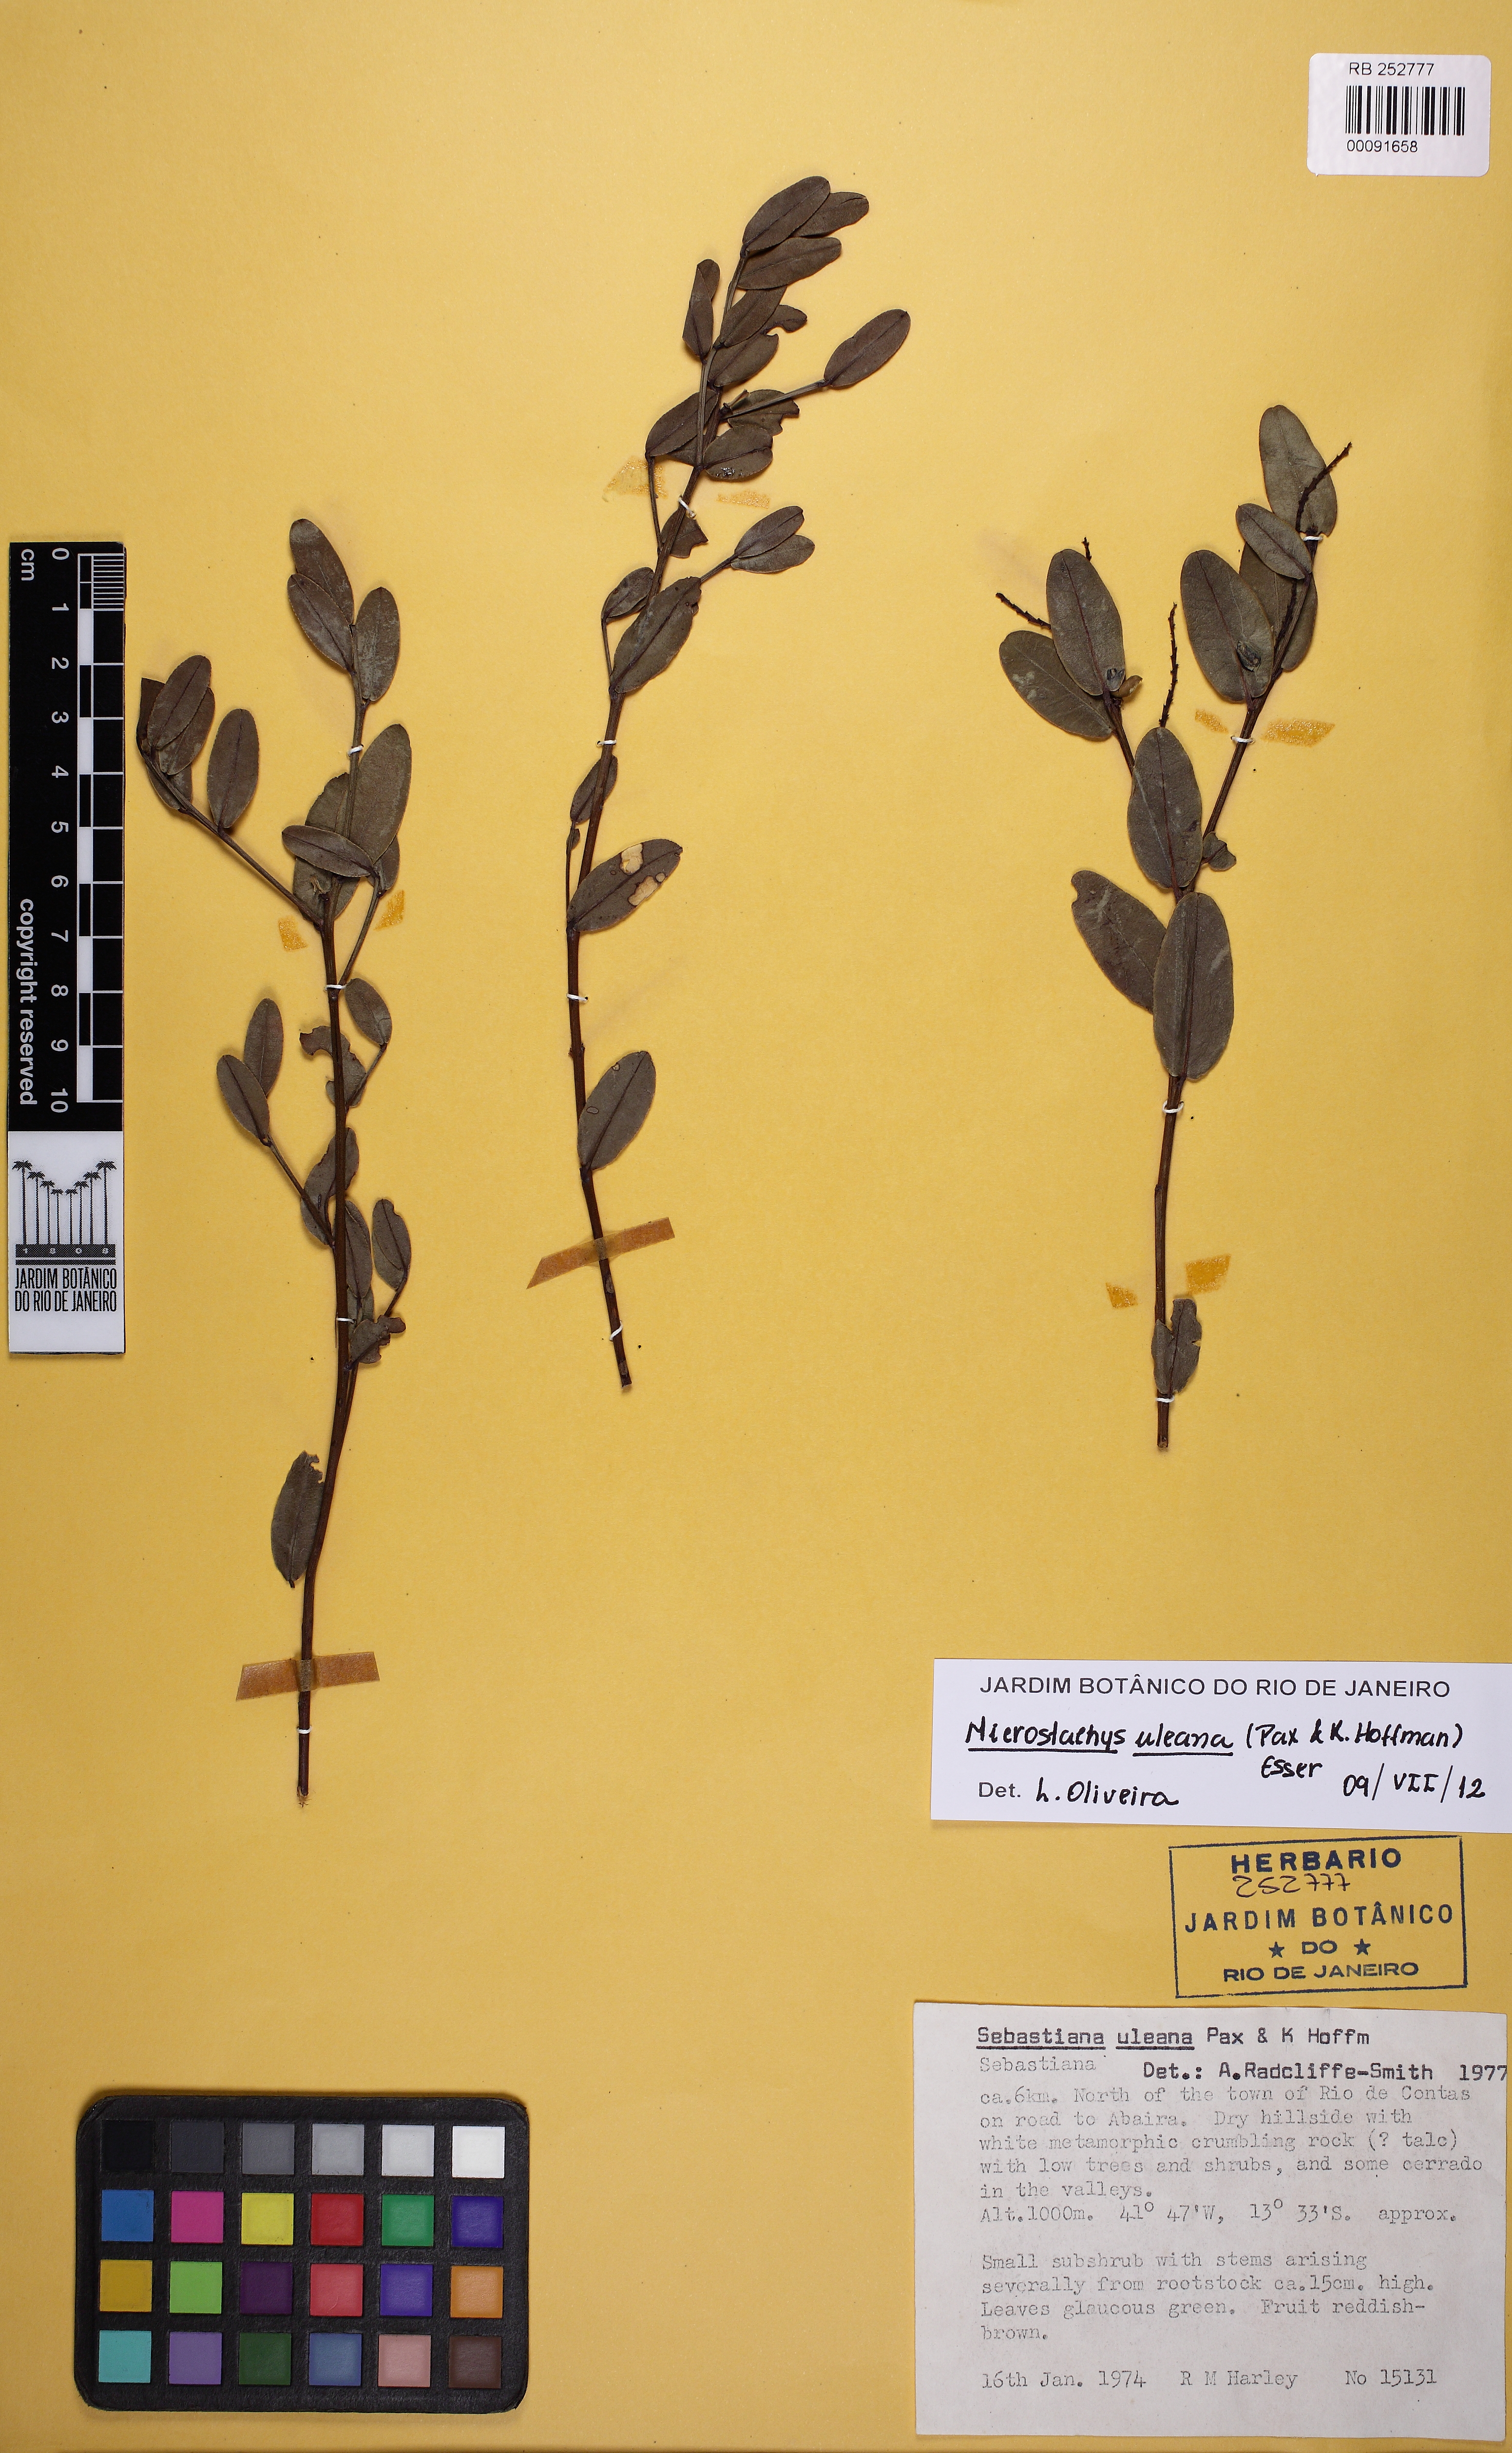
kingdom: Plantae
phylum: Tracheophyta
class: Magnoliopsida
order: Malpighiales
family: Euphorbiaceae
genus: Microstachys
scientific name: Microstachys uleana
